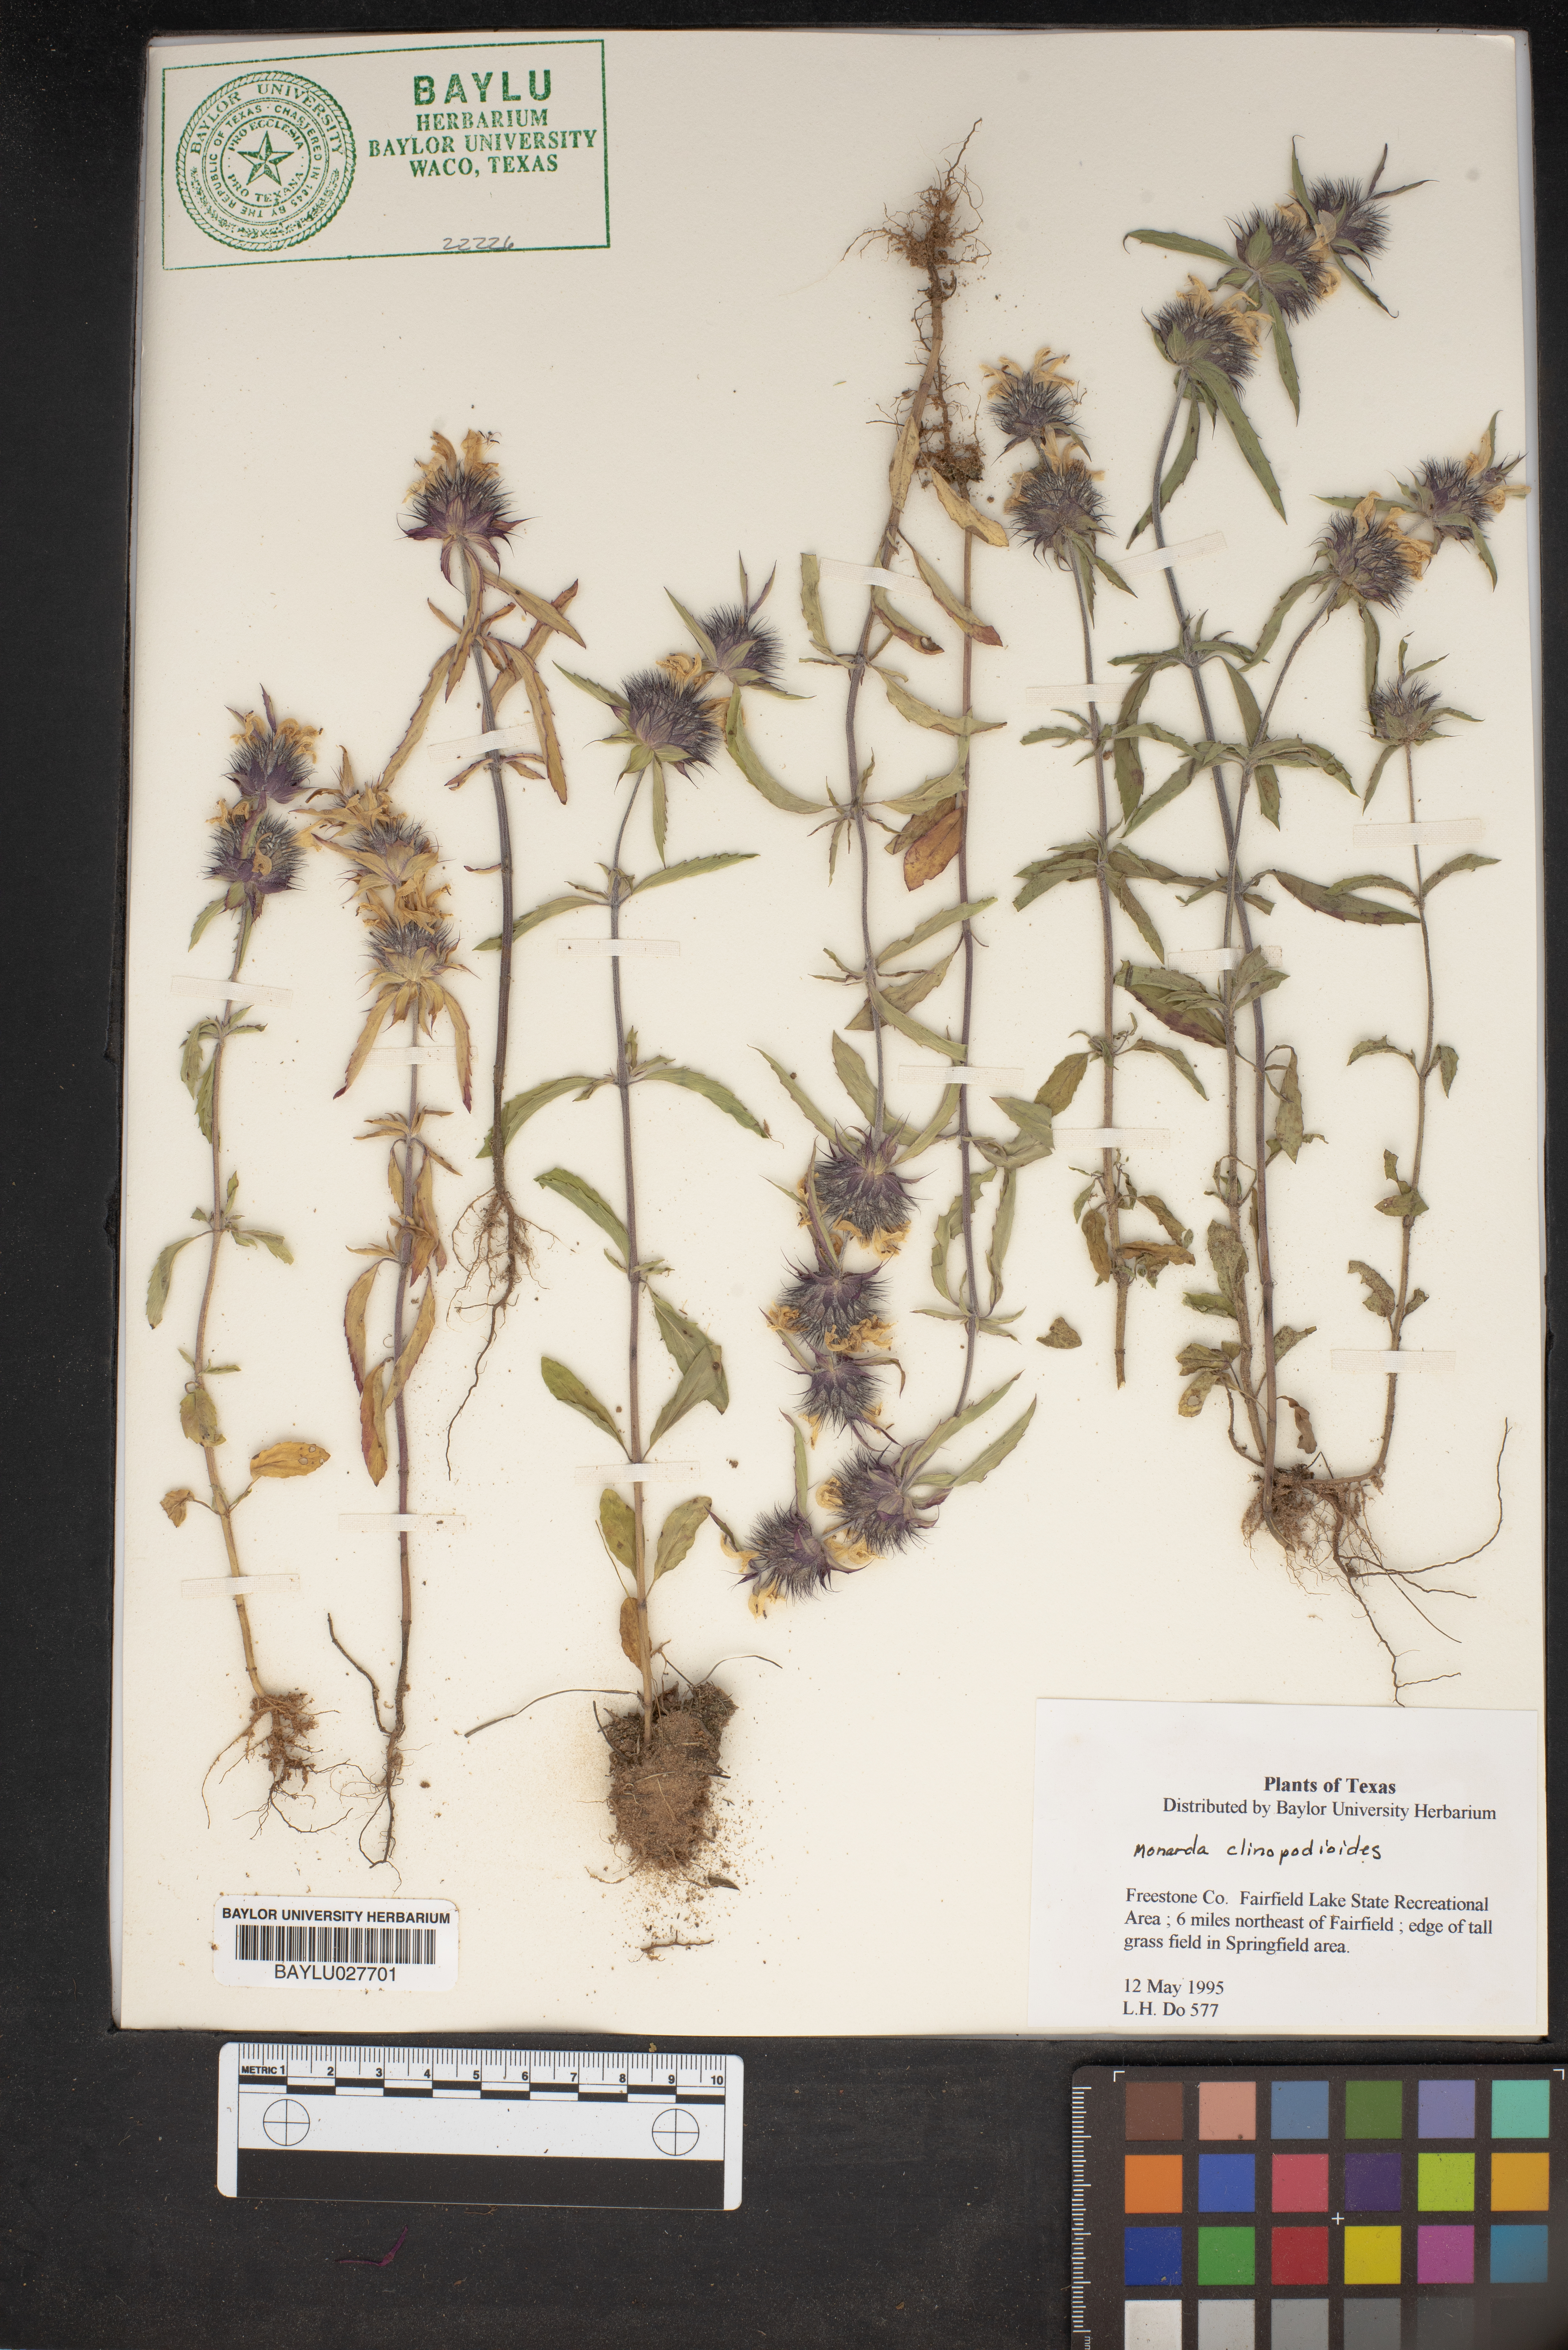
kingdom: Plantae
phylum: Tracheophyta
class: Magnoliopsida
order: Lamiales
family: Lamiaceae
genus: Monarda
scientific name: Monarda clinopodioides
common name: Basil beebalm
